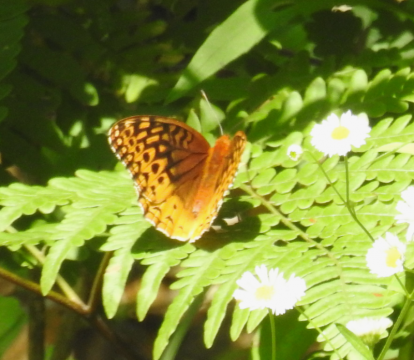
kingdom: Animalia
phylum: Arthropoda
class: Insecta
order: Lepidoptera
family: Nymphalidae
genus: Speyeria
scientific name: Speyeria cybele
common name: Great Spangled Fritillary
